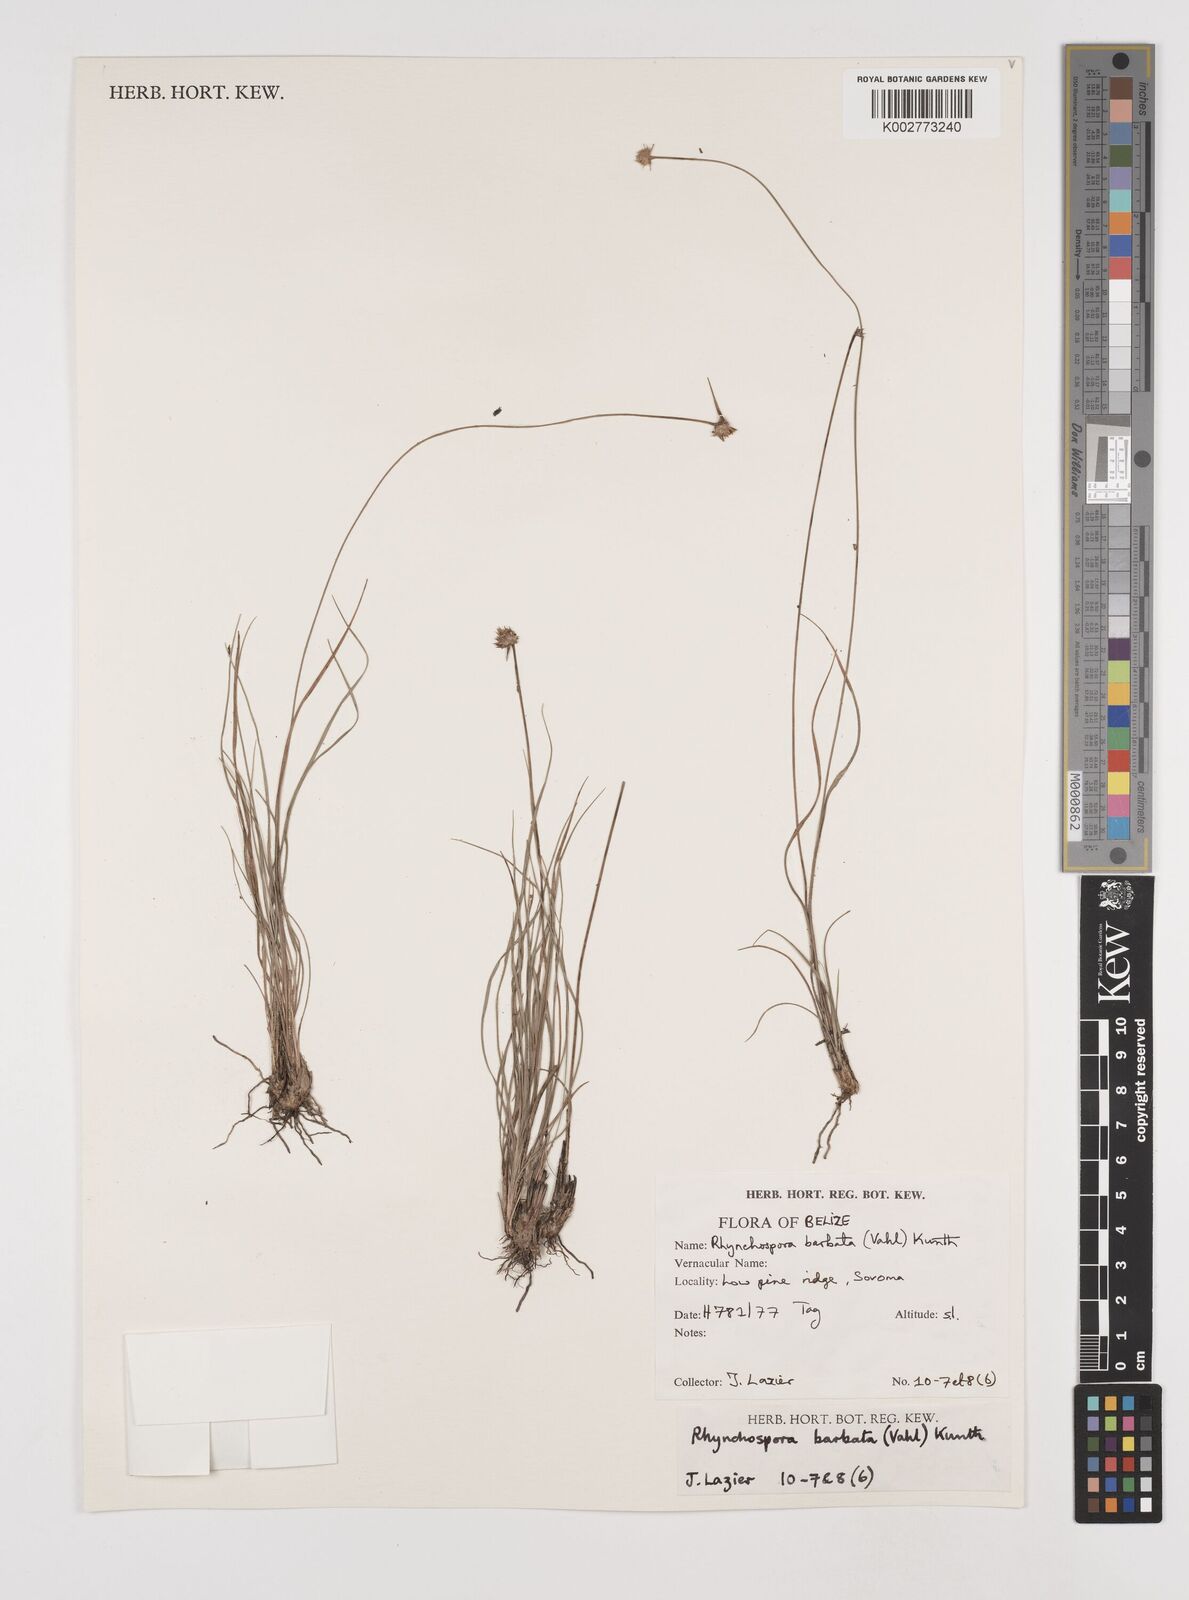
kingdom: Plantae
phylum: Tracheophyta
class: Liliopsida
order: Poales
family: Cyperaceae
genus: Rhynchospora
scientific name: Rhynchospora barbata
